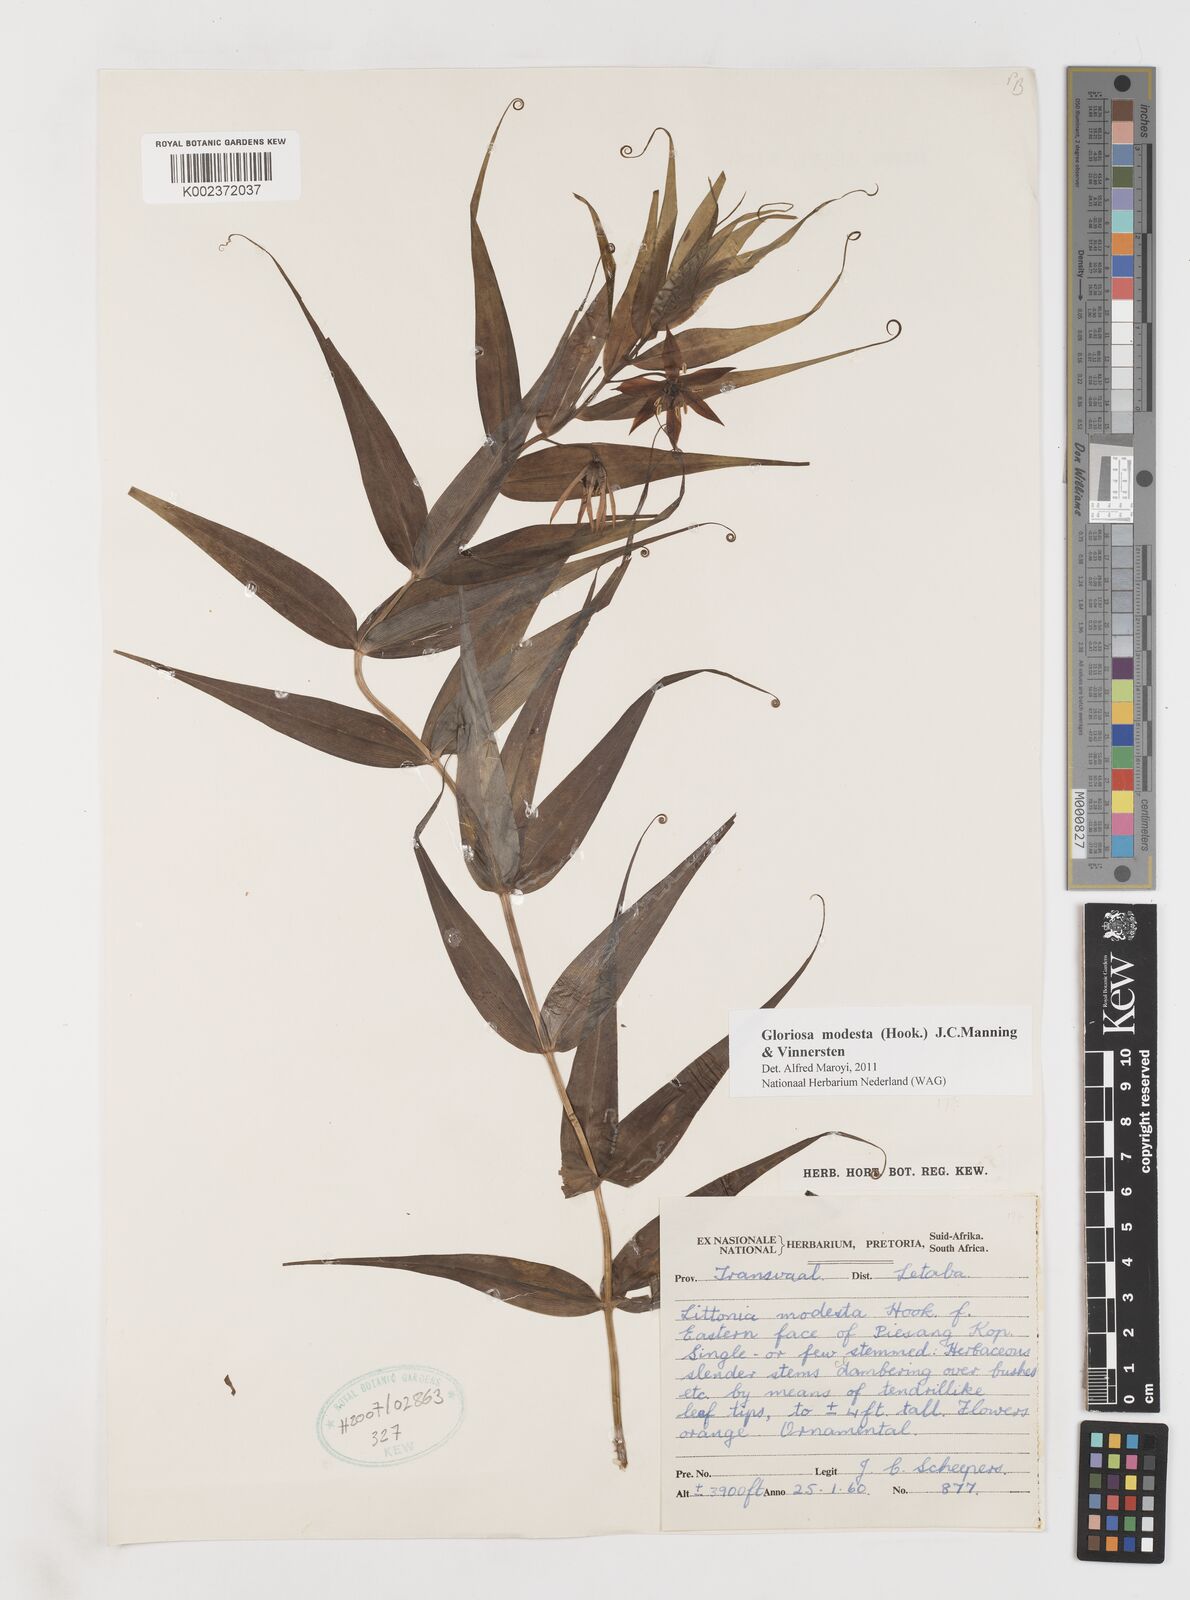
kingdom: Plantae
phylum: Tracheophyta
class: Liliopsida
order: Liliales
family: Colchicaceae
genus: Gloriosa
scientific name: Gloriosa modesta
